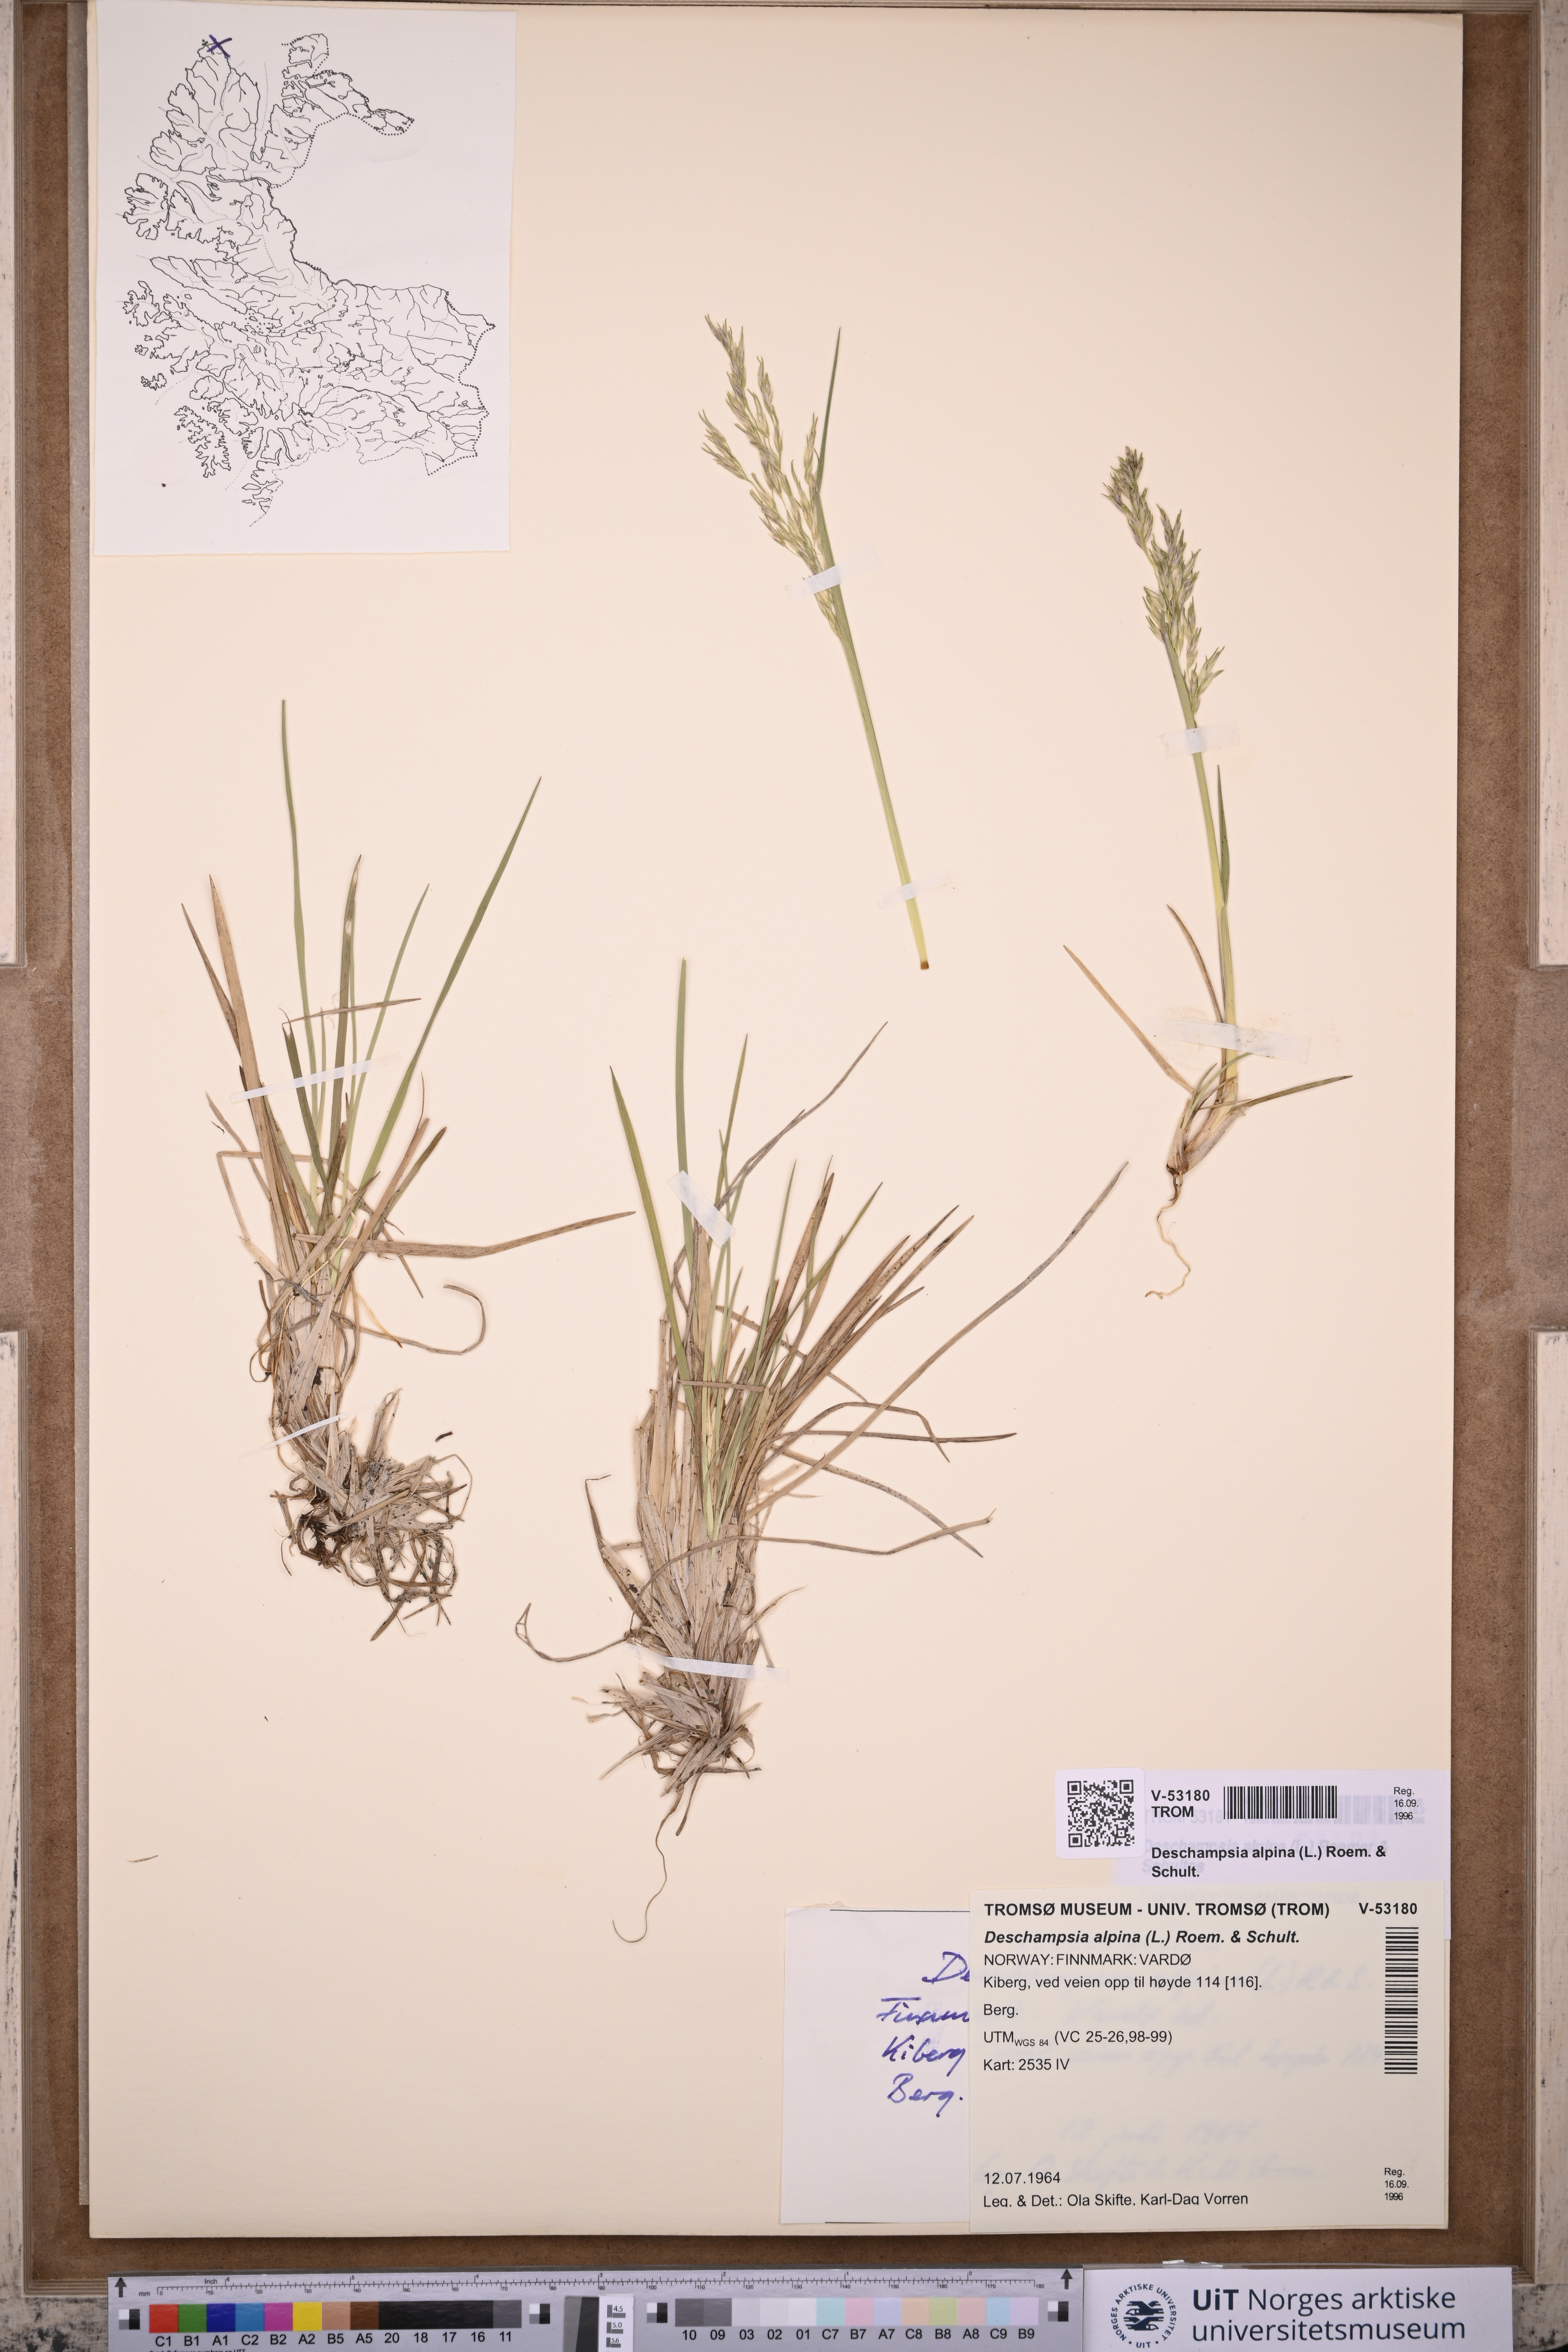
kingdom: Plantae
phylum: Tracheophyta
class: Liliopsida
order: Poales
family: Poaceae
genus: Deschampsia
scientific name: Deschampsia cespitosa
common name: Tufted hair-grass
